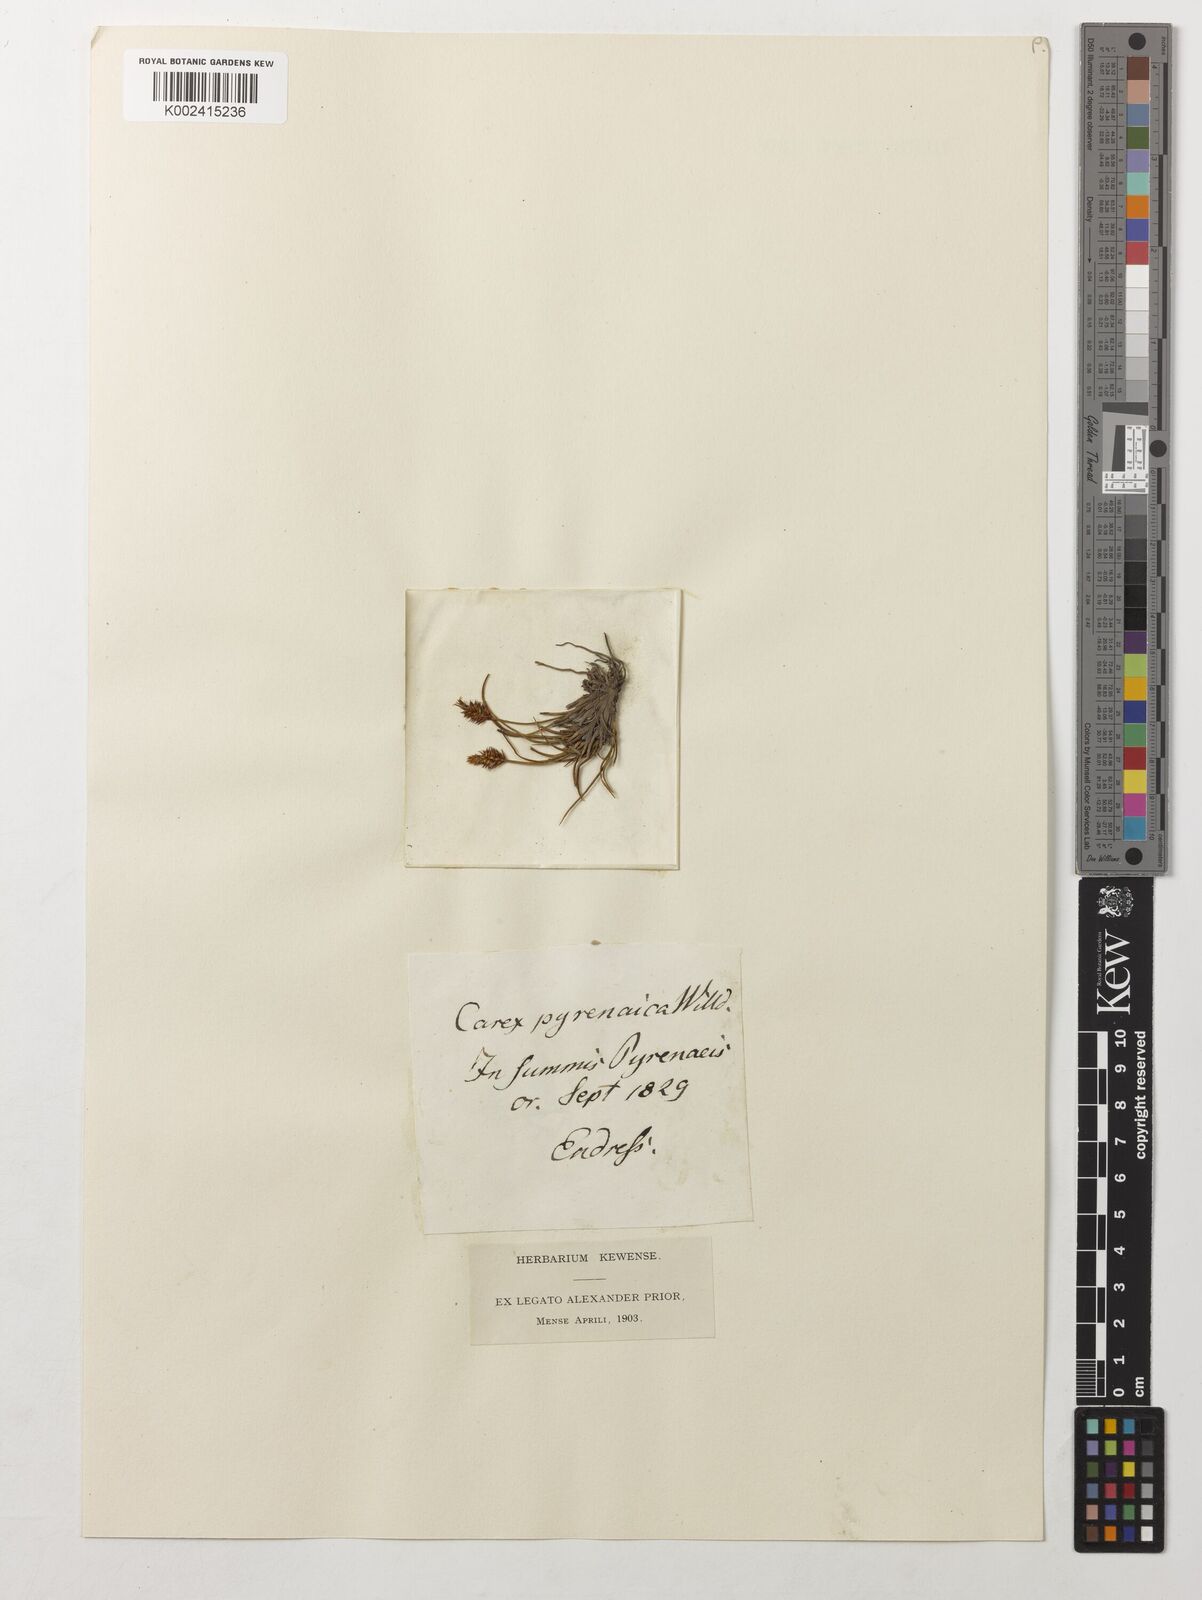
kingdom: Plantae
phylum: Tracheophyta
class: Liliopsida
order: Poales
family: Cyperaceae
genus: Carex
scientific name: Carex pyrenaica
